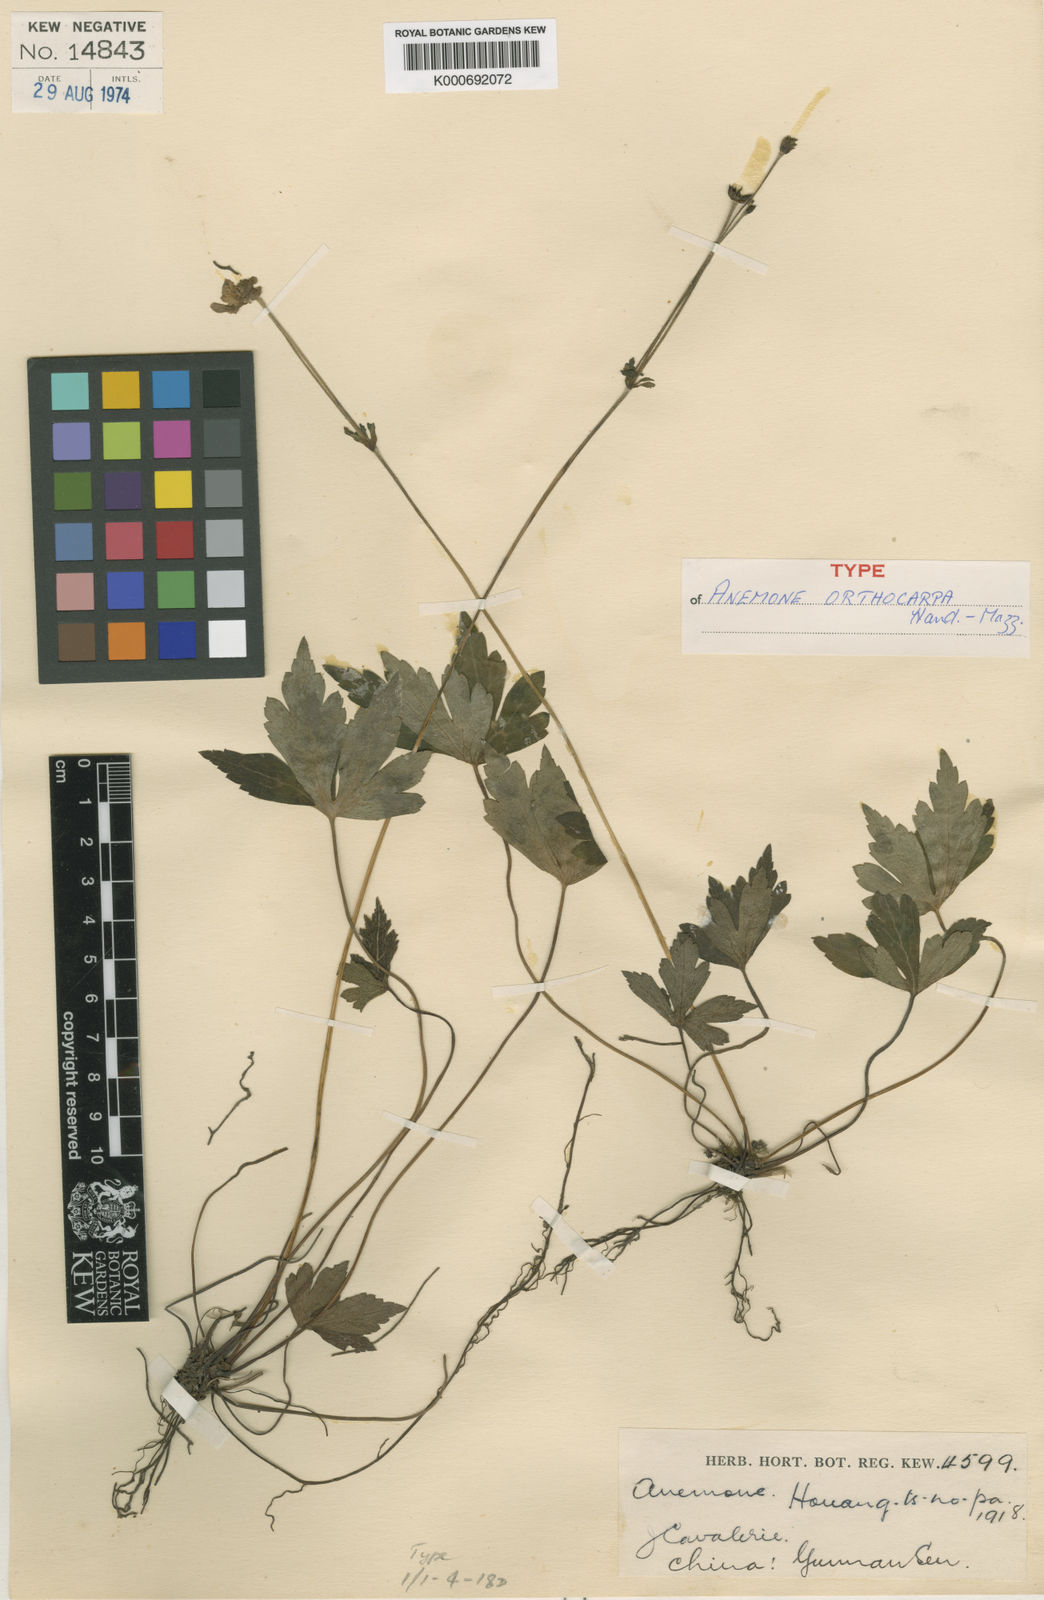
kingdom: Plantae
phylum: Tracheophyta
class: Magnoliopsida
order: Ranunculales
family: Ranunculaceae
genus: Anemone
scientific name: Anemone orthocarpa
